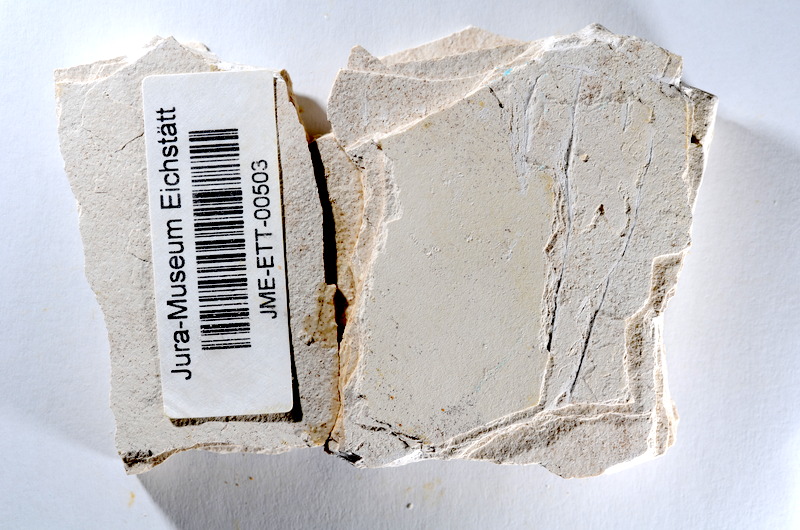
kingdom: Animalia
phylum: Chordata
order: Salmoniformes
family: Orthogonikleithridae
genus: Orthogonikleithrus
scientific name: Orthogonikleithrus hoelli
